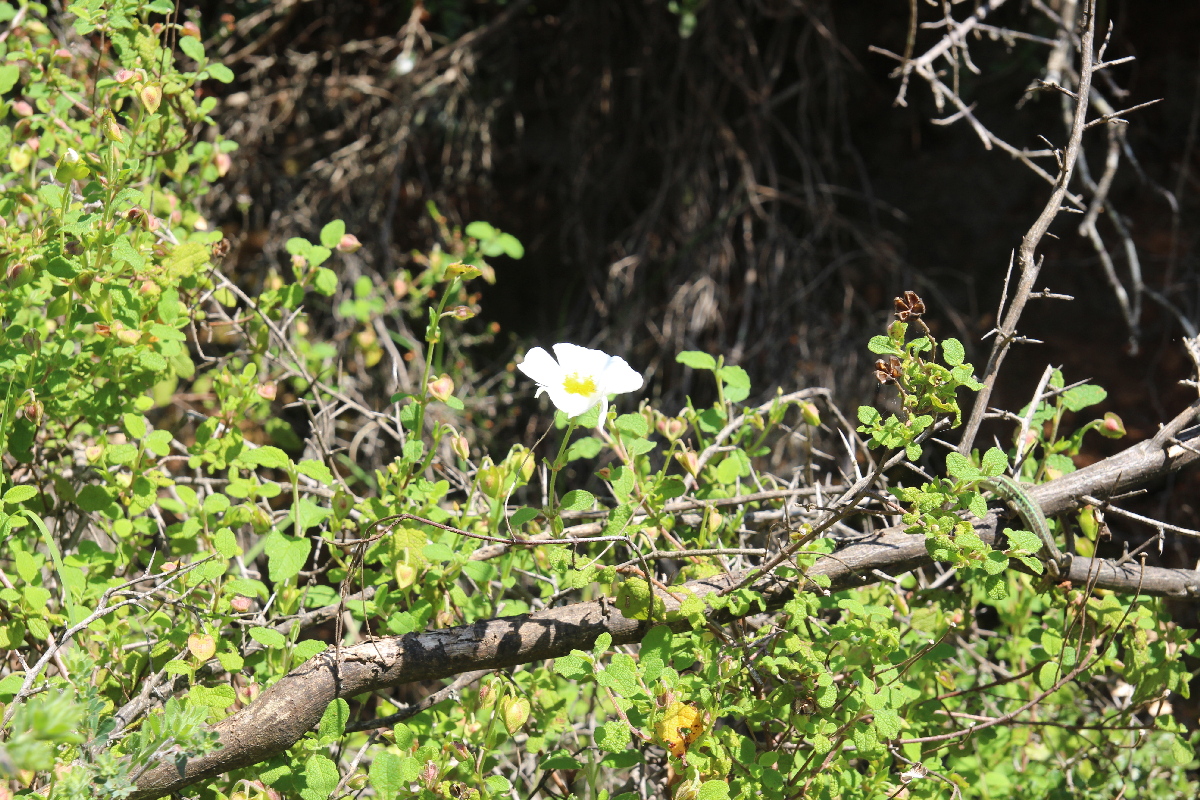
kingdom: Plantae
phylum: Tracheophyta
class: Magnoliopsida
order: Malvales
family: Cistaceae
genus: Cistus
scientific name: Cistus salviifolius
